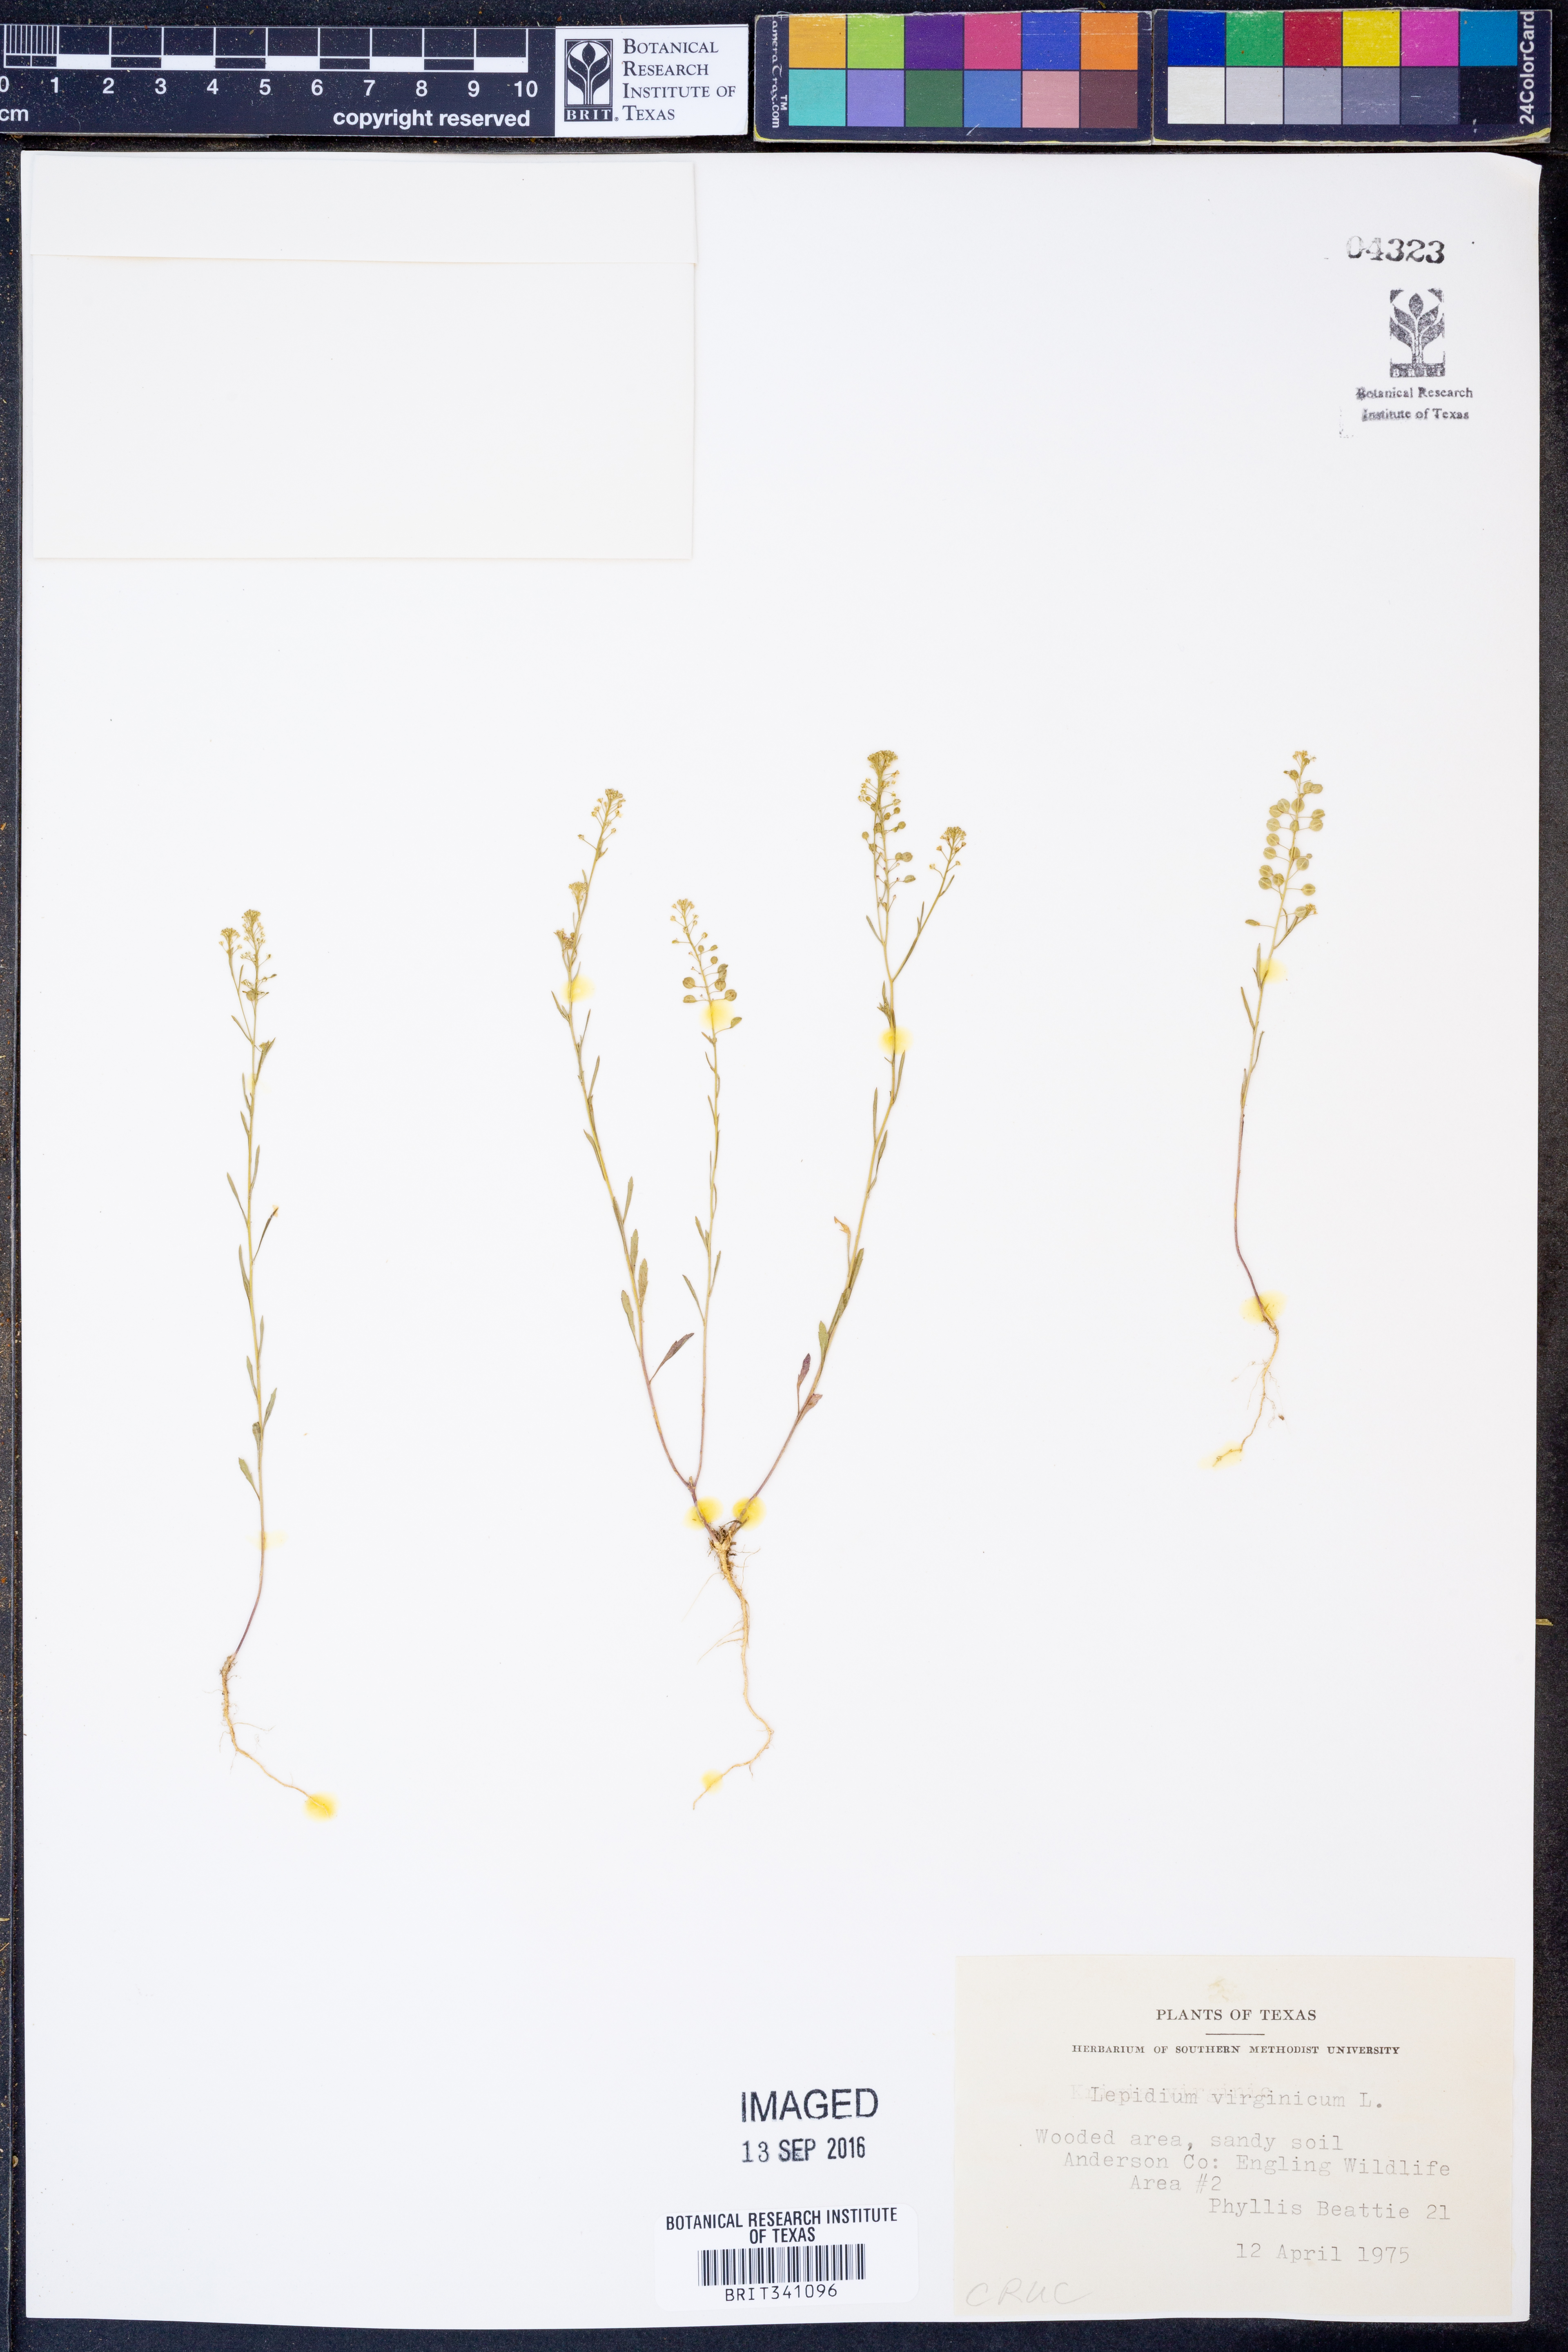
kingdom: Plantae
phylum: Tracheophyta
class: Magnoliopsida
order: Brassicales
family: Brassicaceae
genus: Lepidium
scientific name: Lepidium virginicum
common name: Least pepperwort
